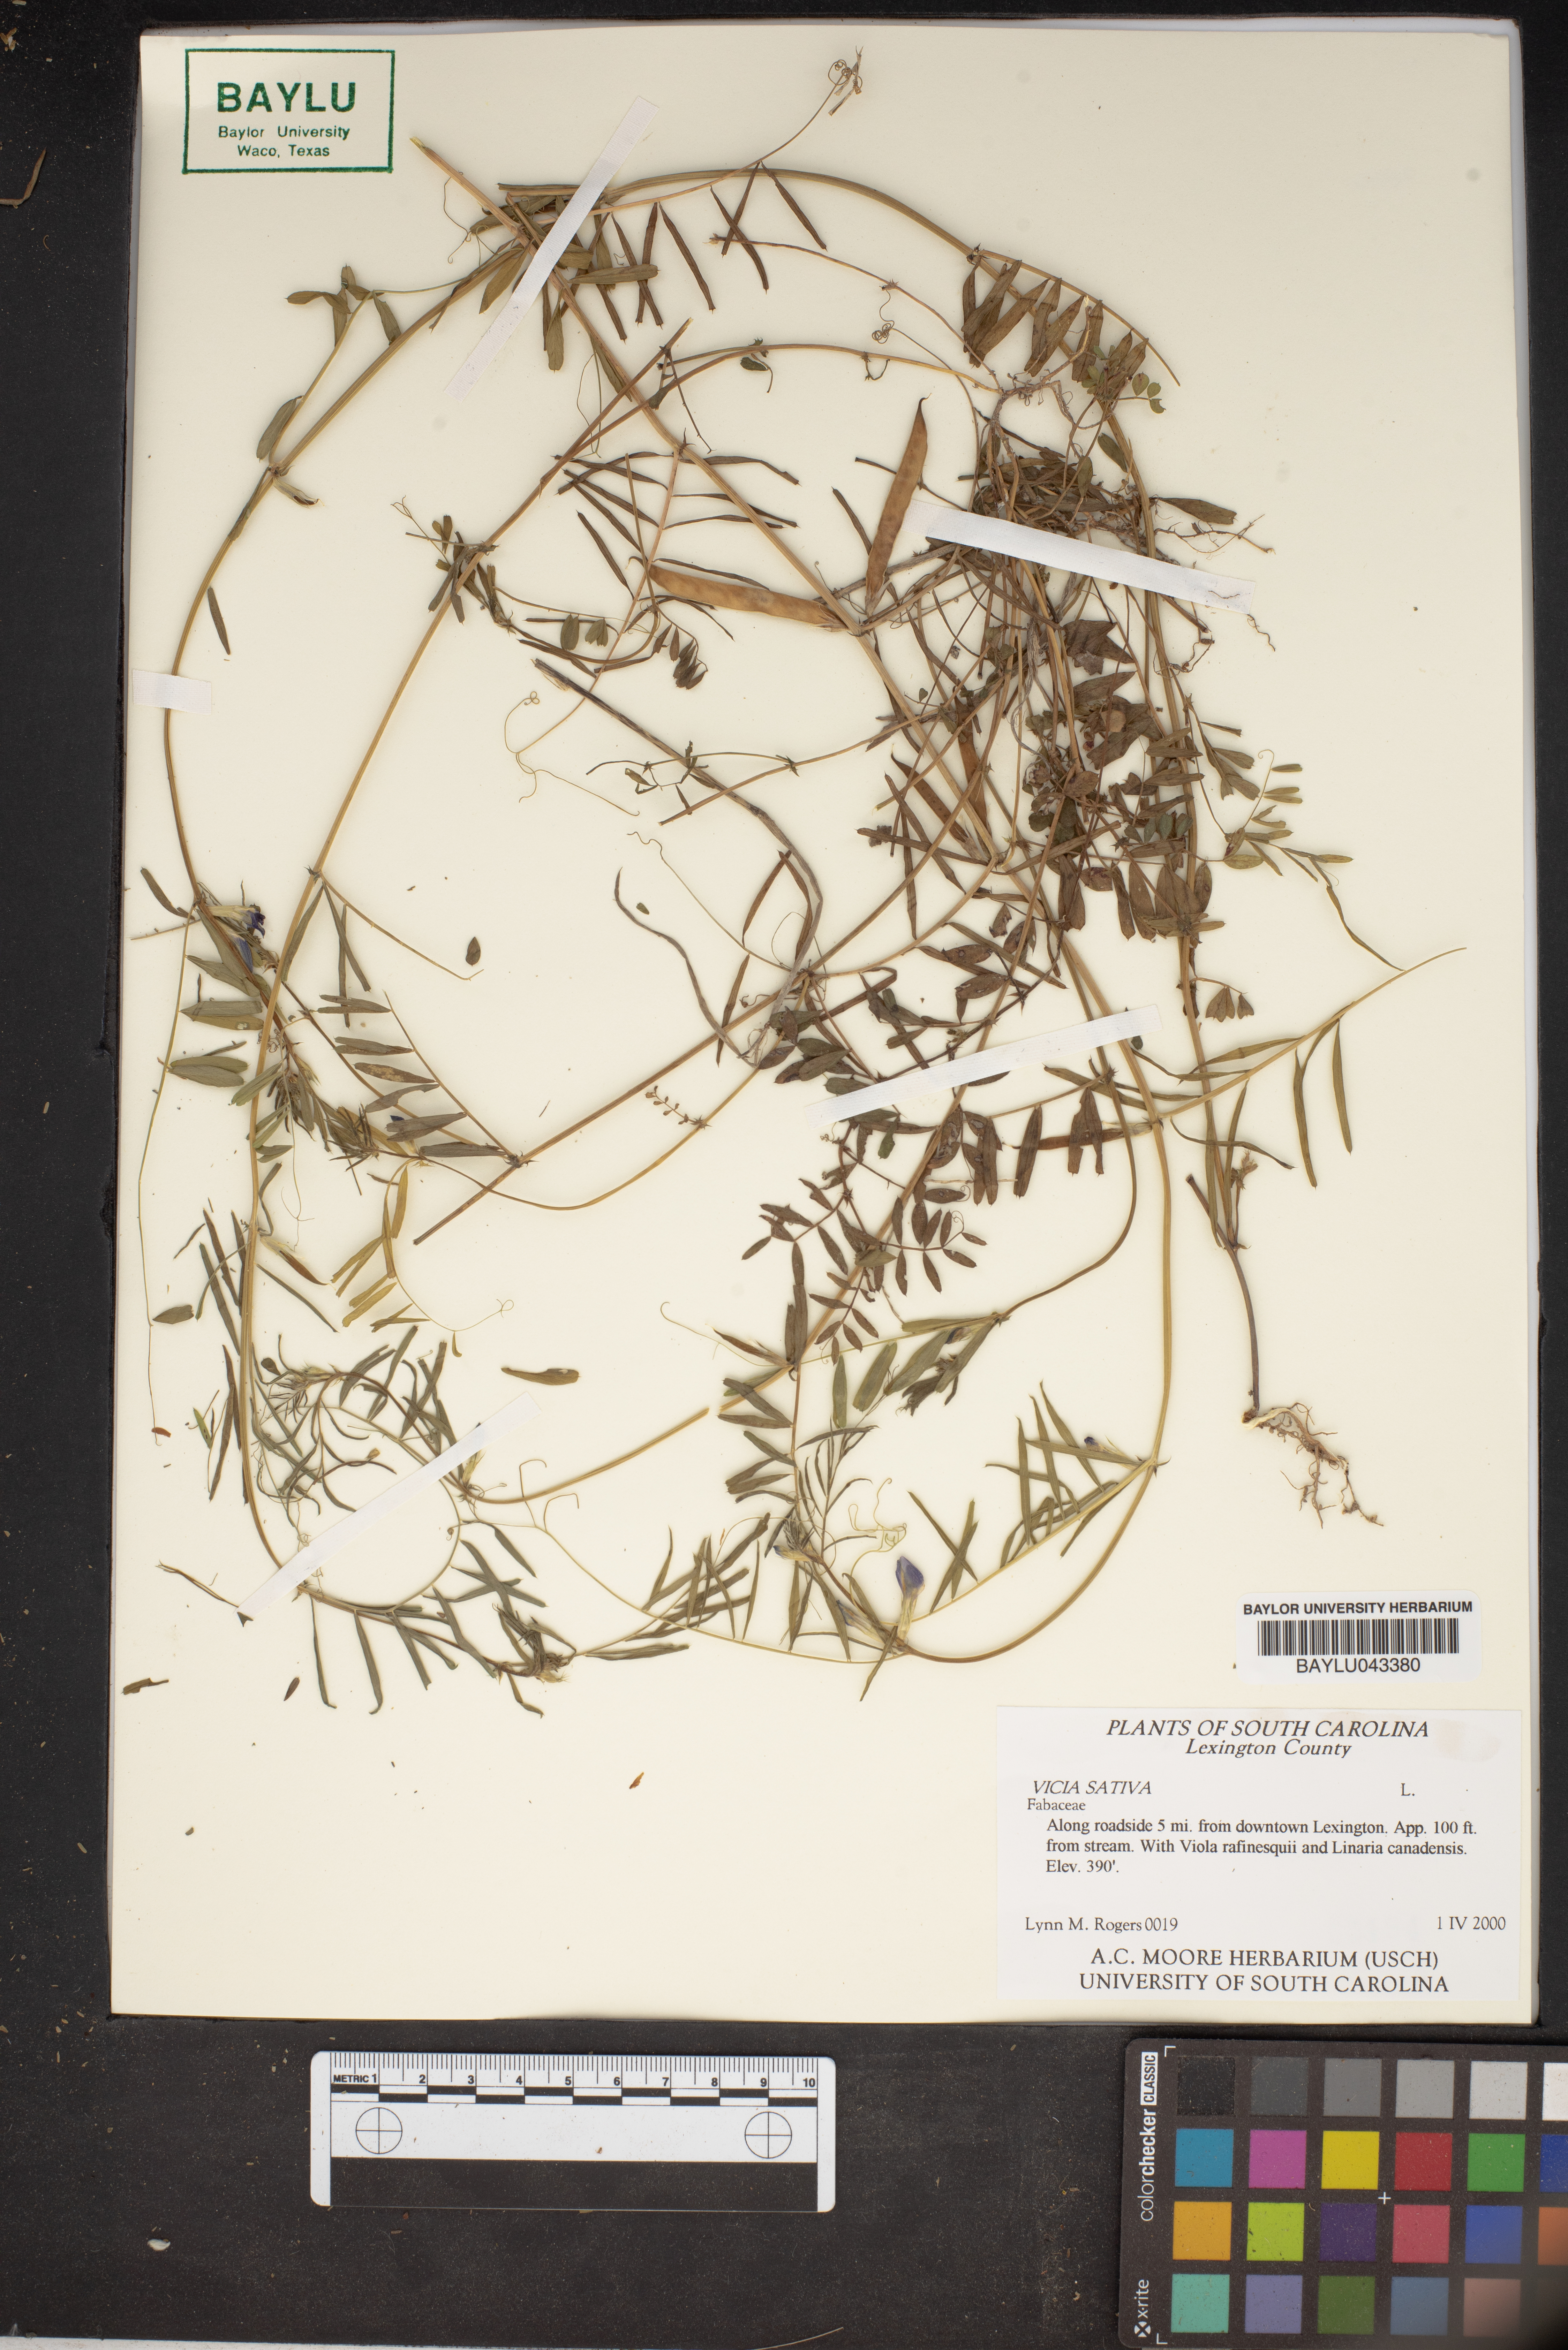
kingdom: Plantae
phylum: Tracheophyta
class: Magnoliopsida
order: Fabales
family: Fabaceae
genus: Vicia
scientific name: Vicia sativa
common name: Garden vetch
